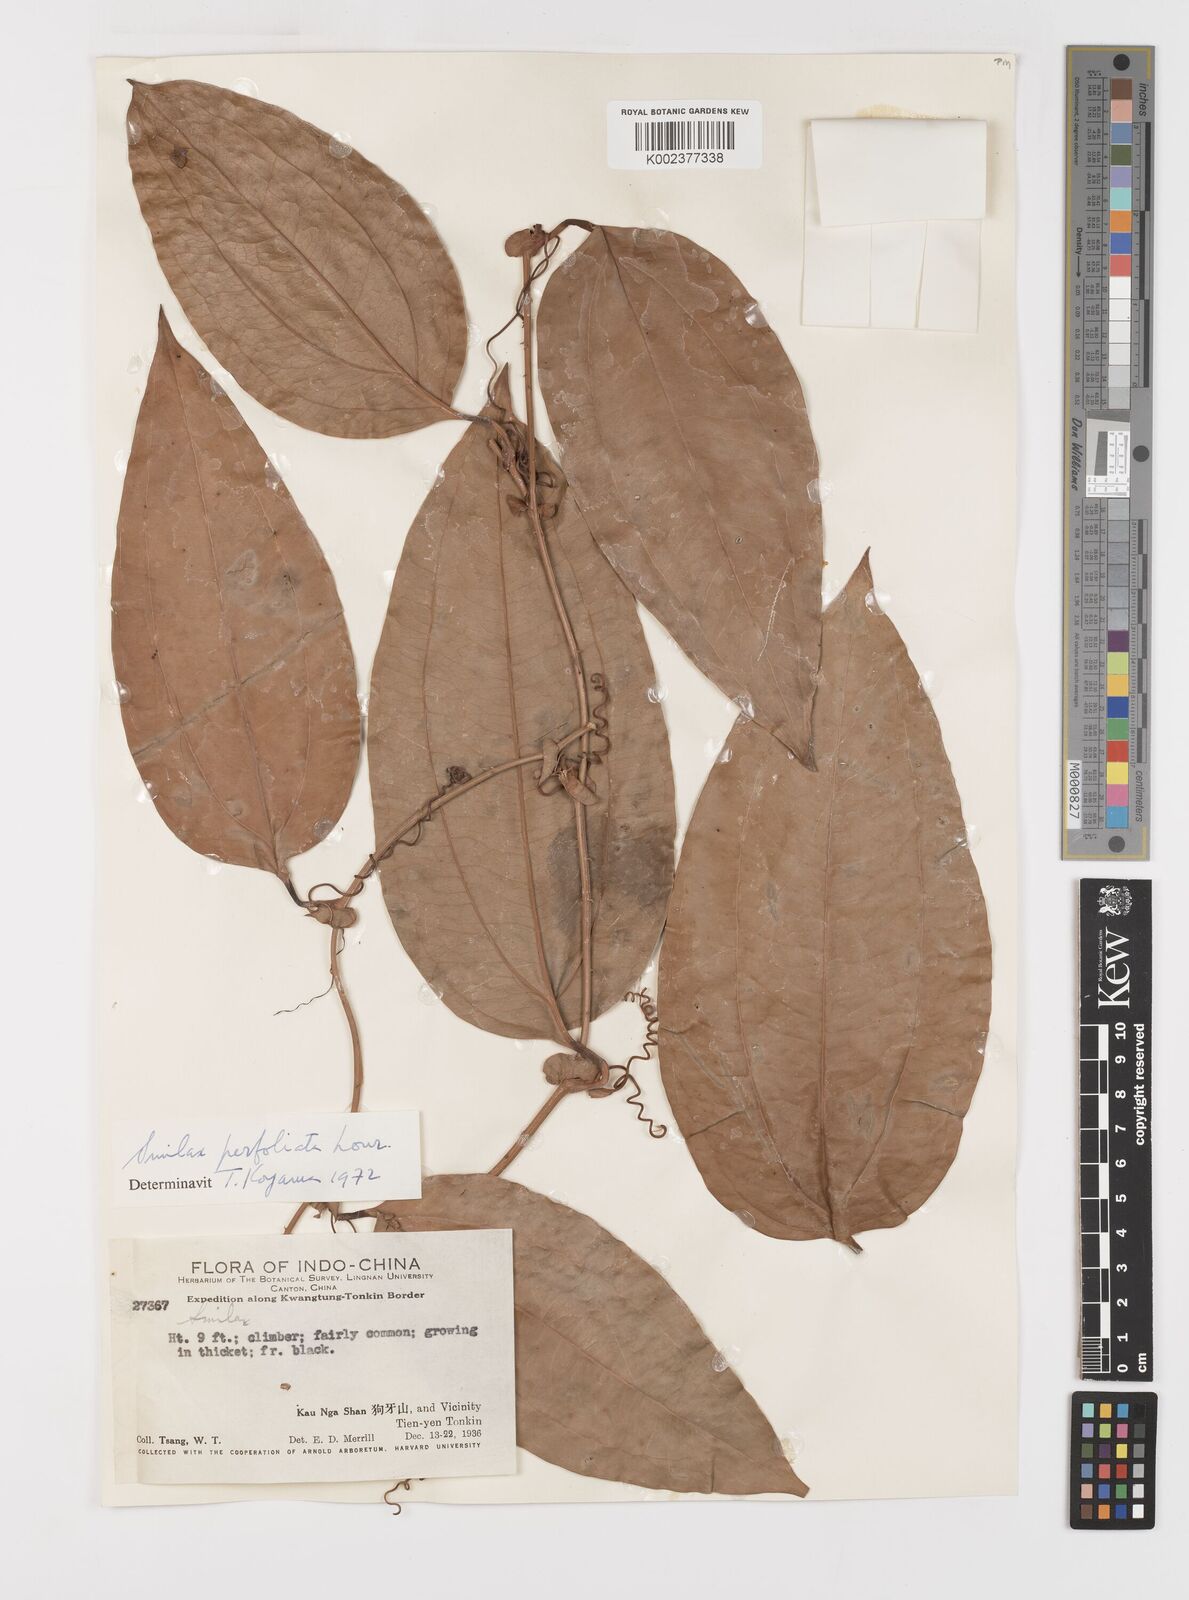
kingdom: Plantae
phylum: Tracheophyta
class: Liliopsida
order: Liliales
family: Smilacaceae
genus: Smilax
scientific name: Smilax perfoliata
